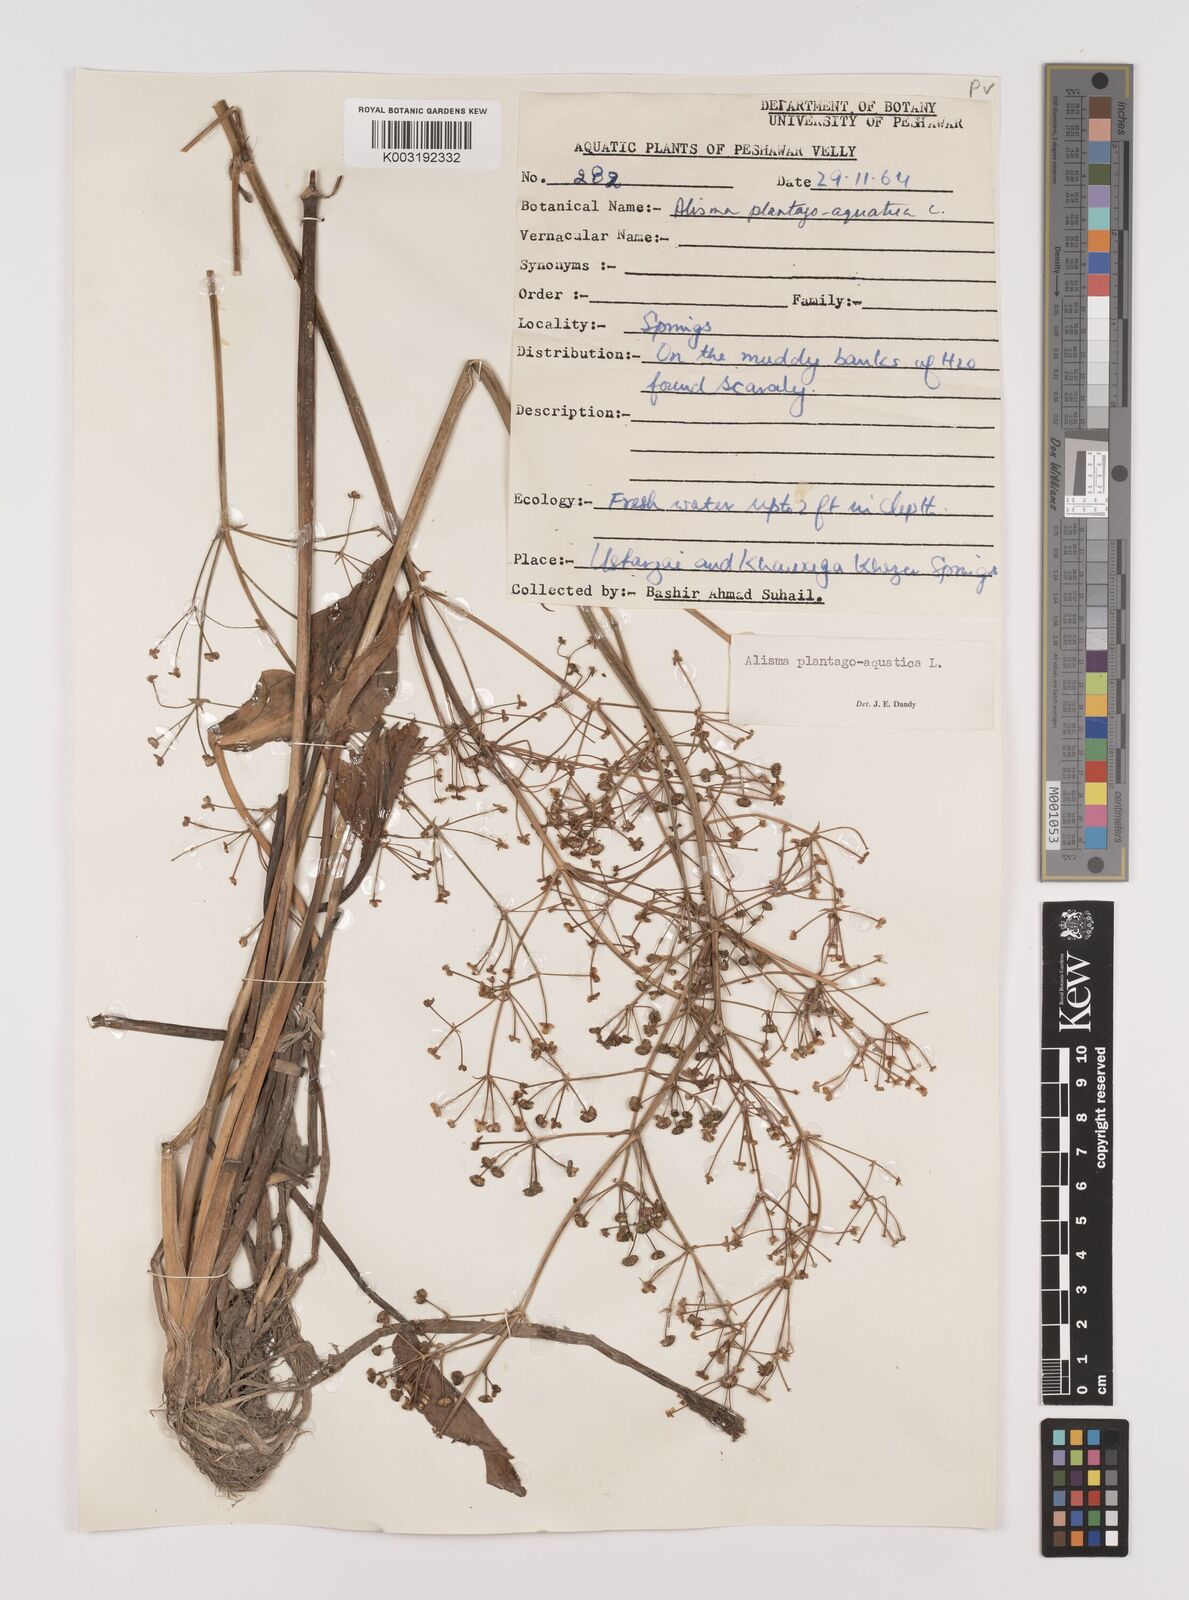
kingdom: Plantae
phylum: Tracheophyta
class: Liliopsida
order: Alismatales
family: Alismataceae
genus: Alisma
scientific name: Alisma plantago-aquatica
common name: Water-plantain
